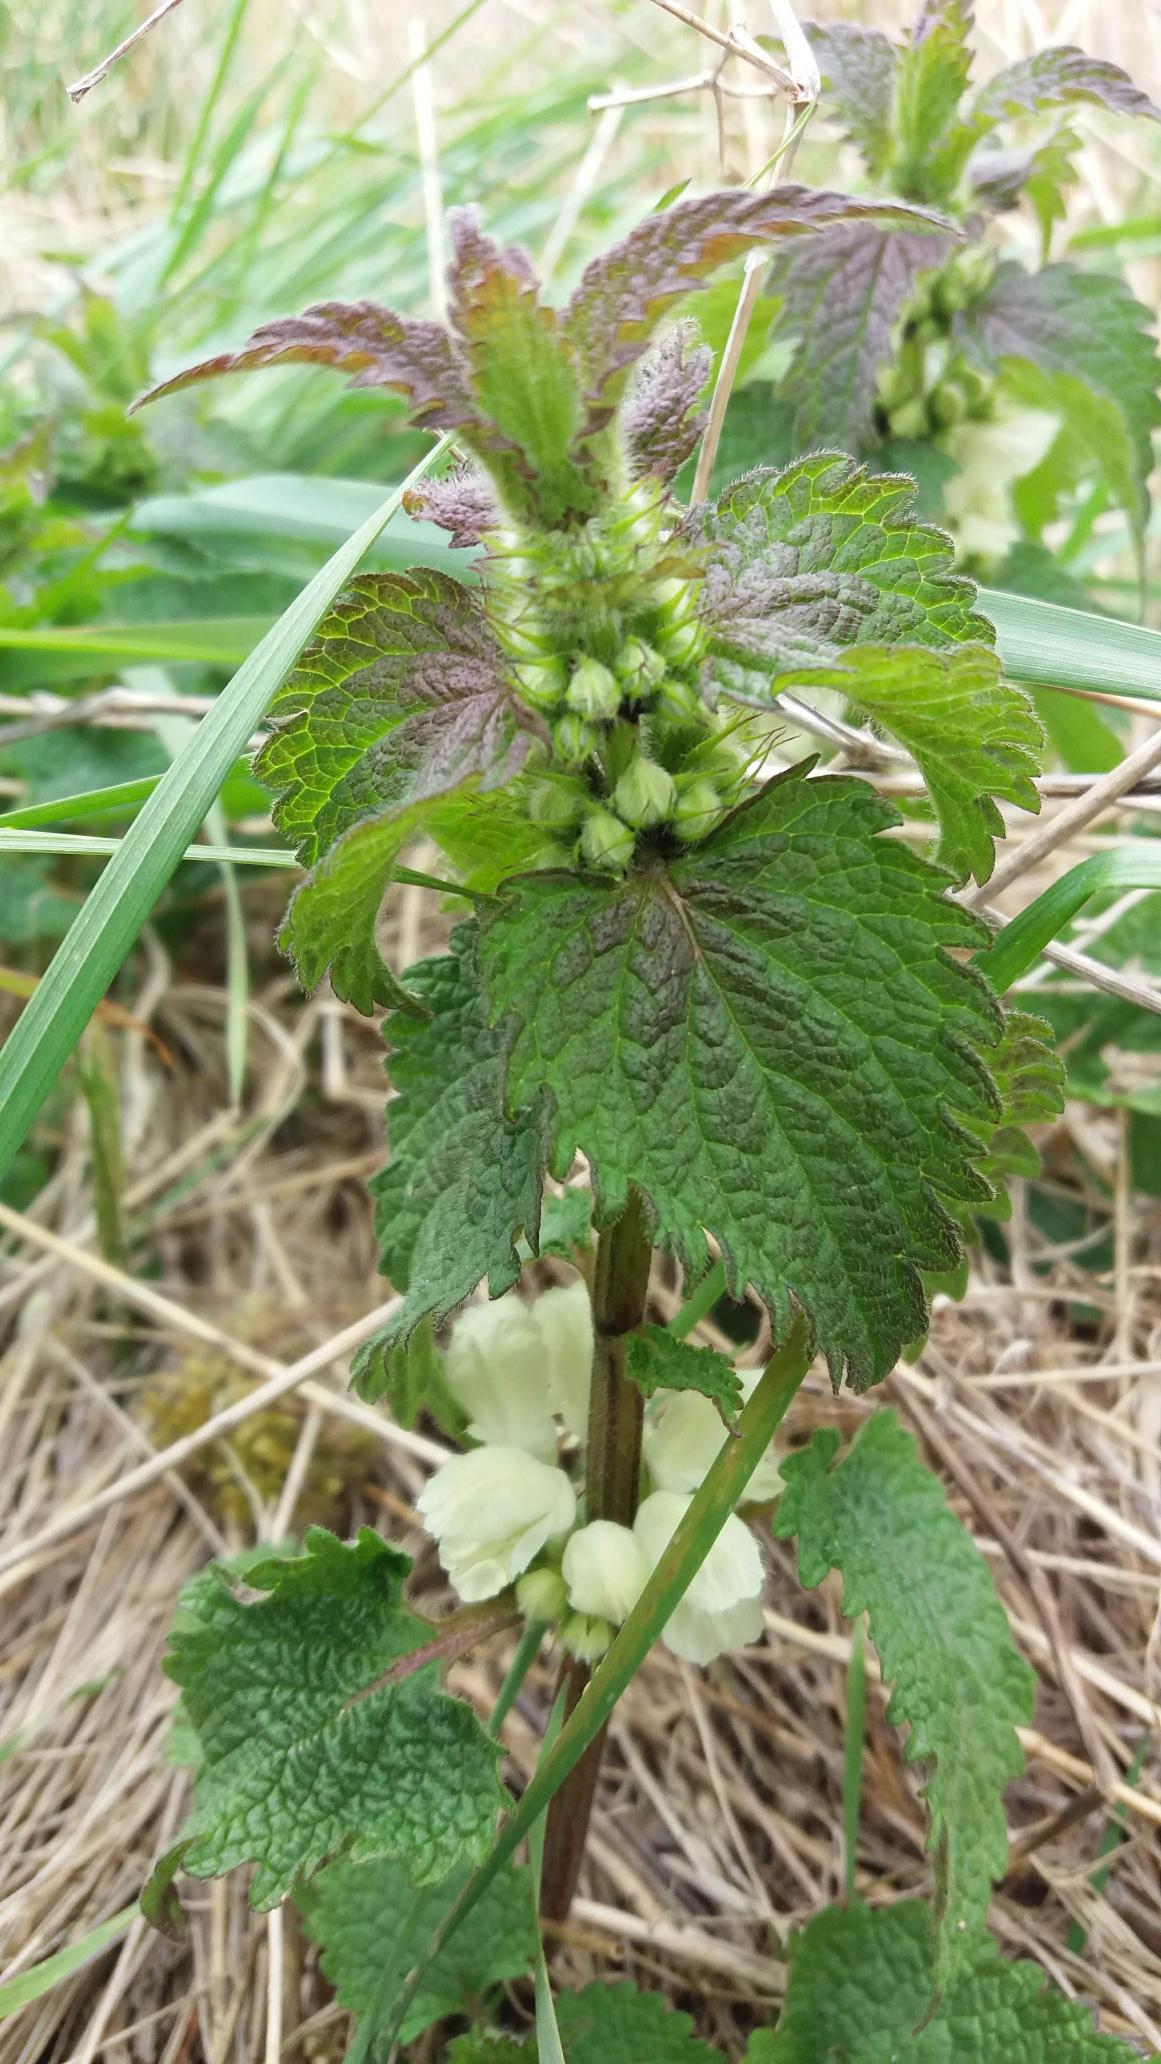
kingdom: Plantae
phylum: Tracheophyta
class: Magnoliopsida
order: Lamiales
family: Lamiaceae
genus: Lamium
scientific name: Lamium album
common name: Døvnælde
